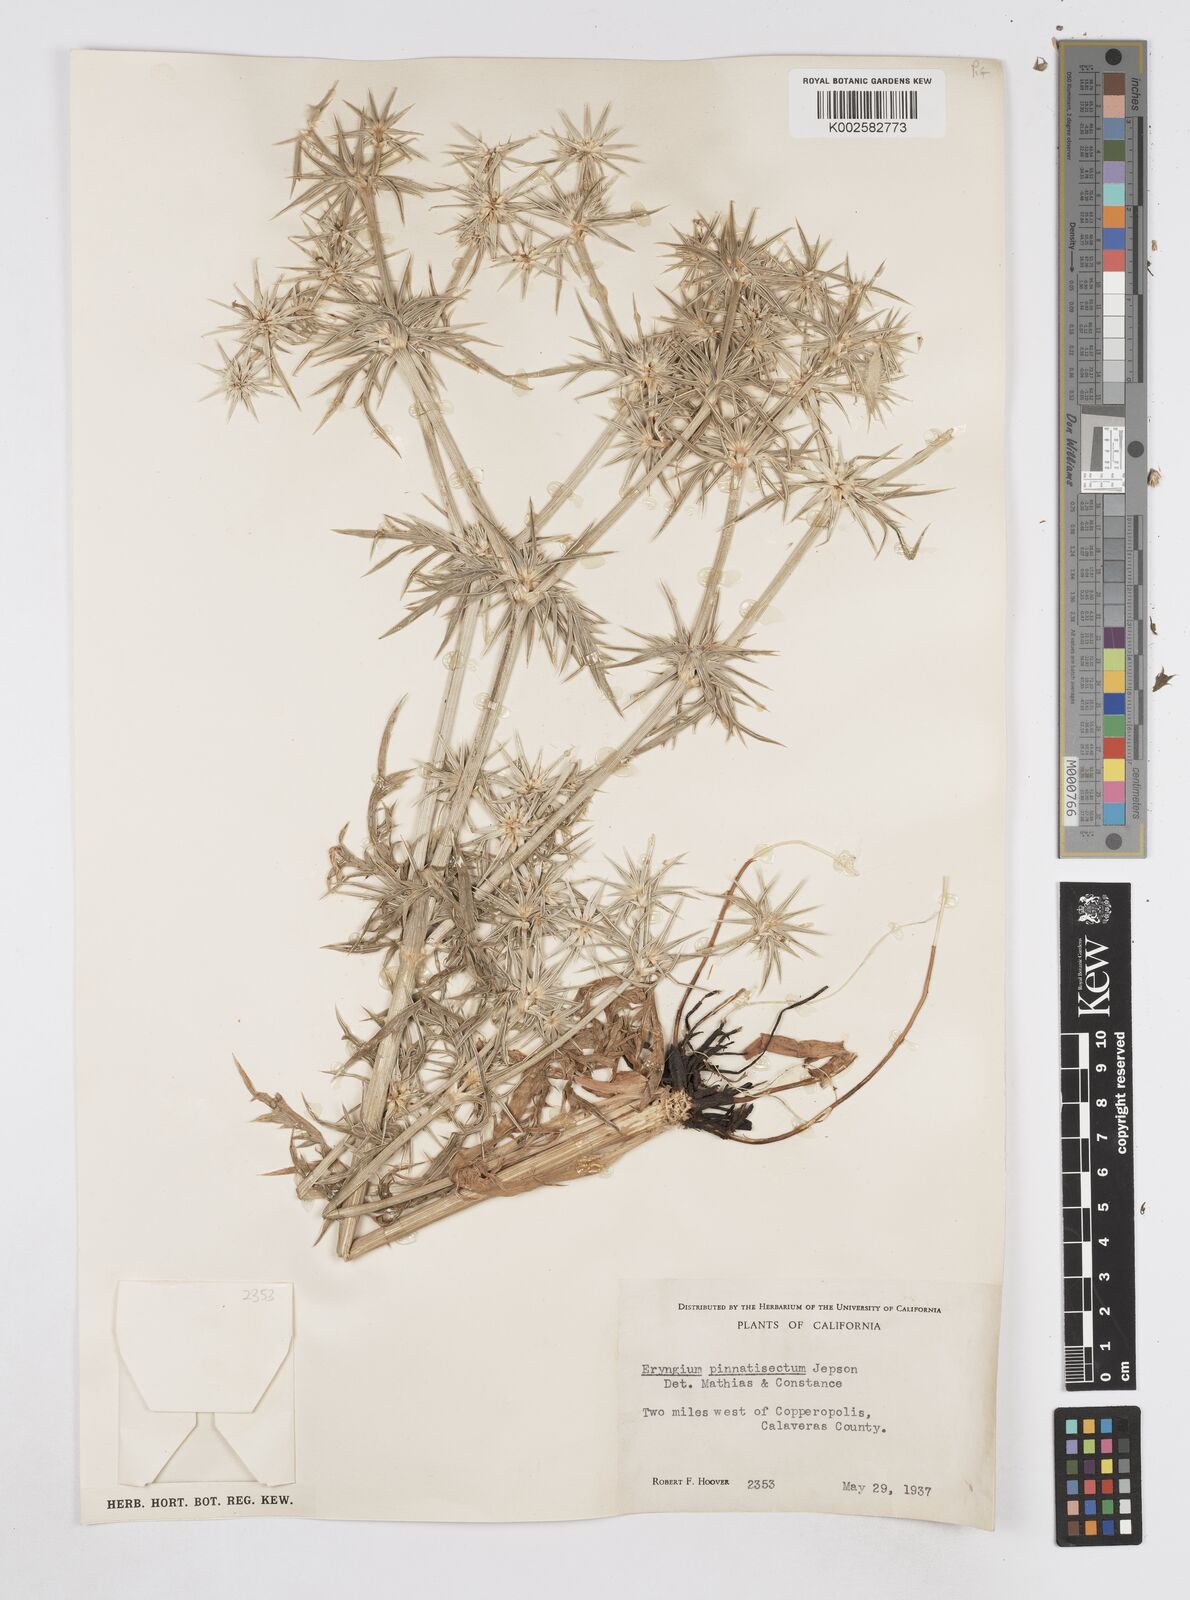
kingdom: Plantae
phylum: Tracheophyta
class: Magnoliopsida
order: Apiales
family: Apiaceae
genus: Eryngium
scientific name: Eryngium pinnatisectum
